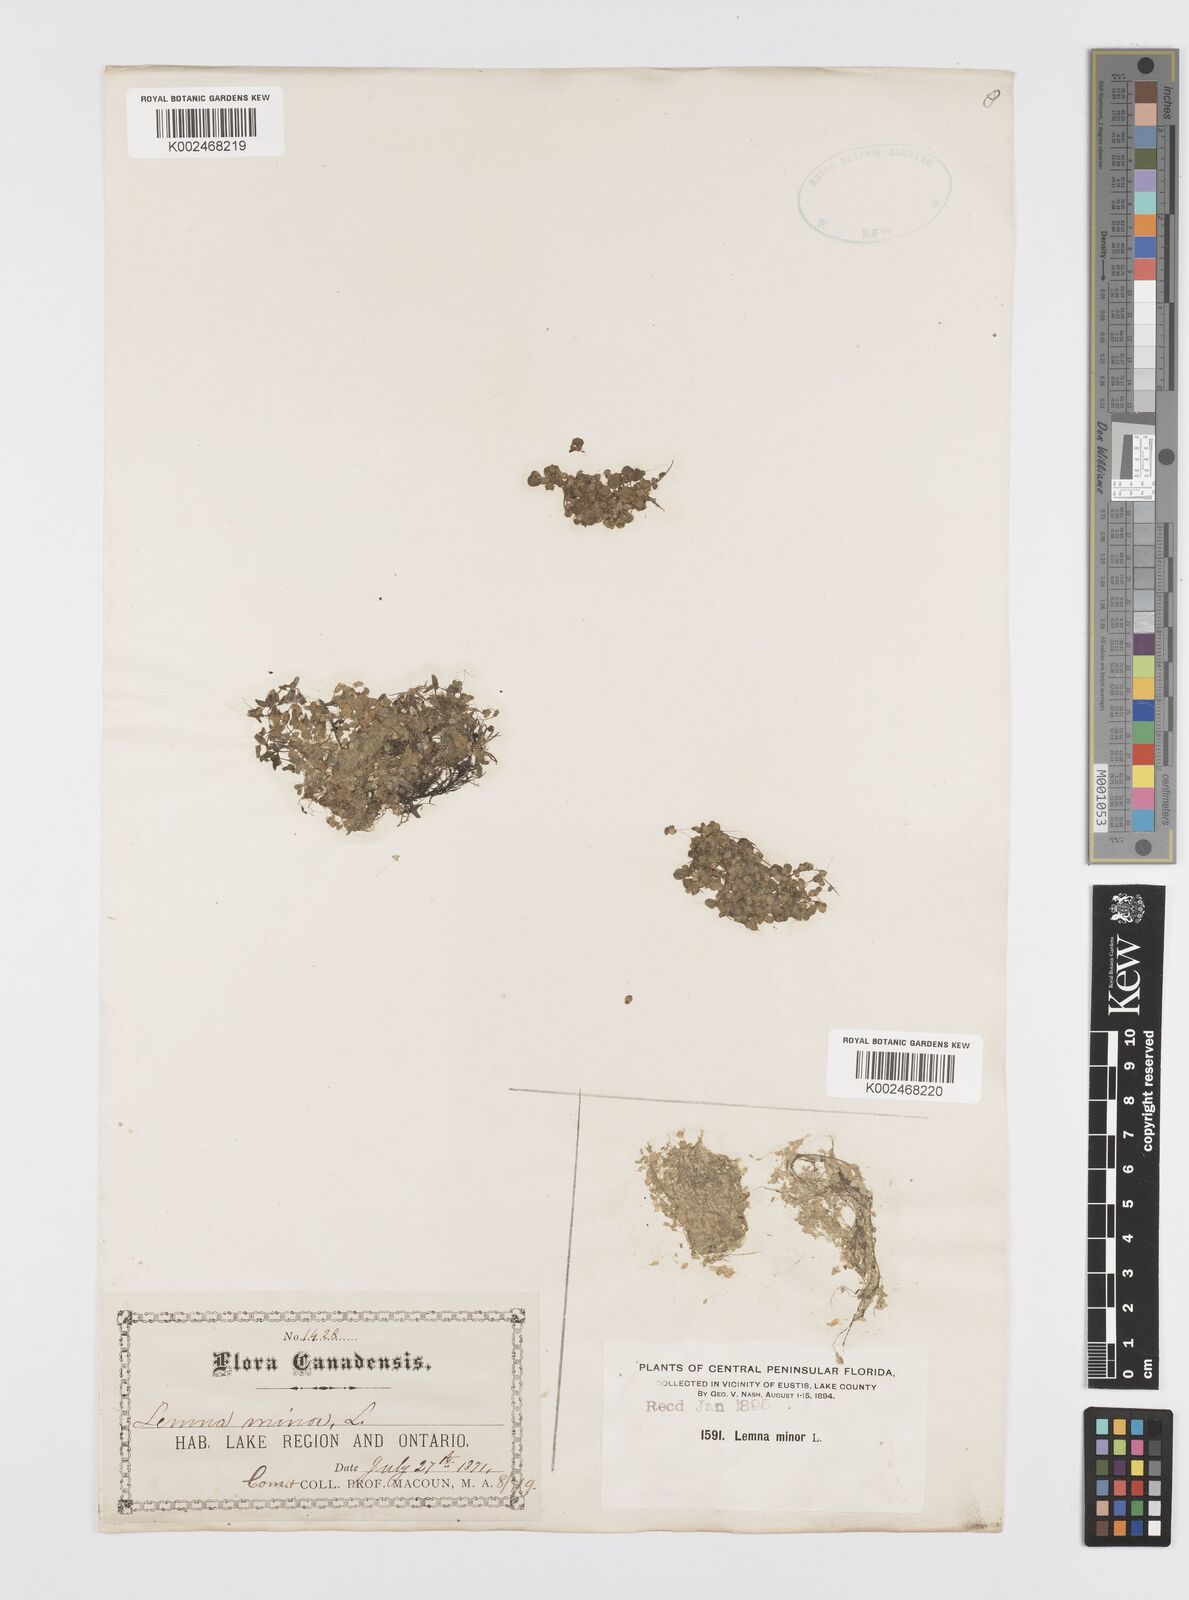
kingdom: Plantae
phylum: Tracheophyta
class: Liliopsida
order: Alismatales
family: Araceae
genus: Lemna
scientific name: Lemna minor
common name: Common duckweed
